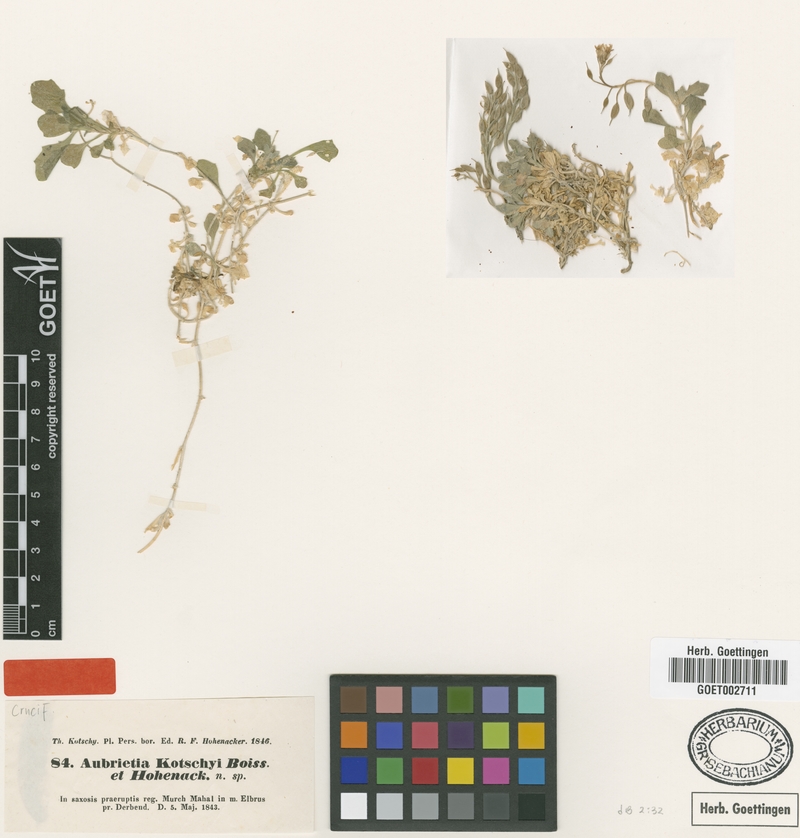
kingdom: Plantae
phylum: Tracheophyta
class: Magnoliopsida
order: Brassicales
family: Brassicaceae
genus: Aubrieta
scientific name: Aubrieta parviflora
